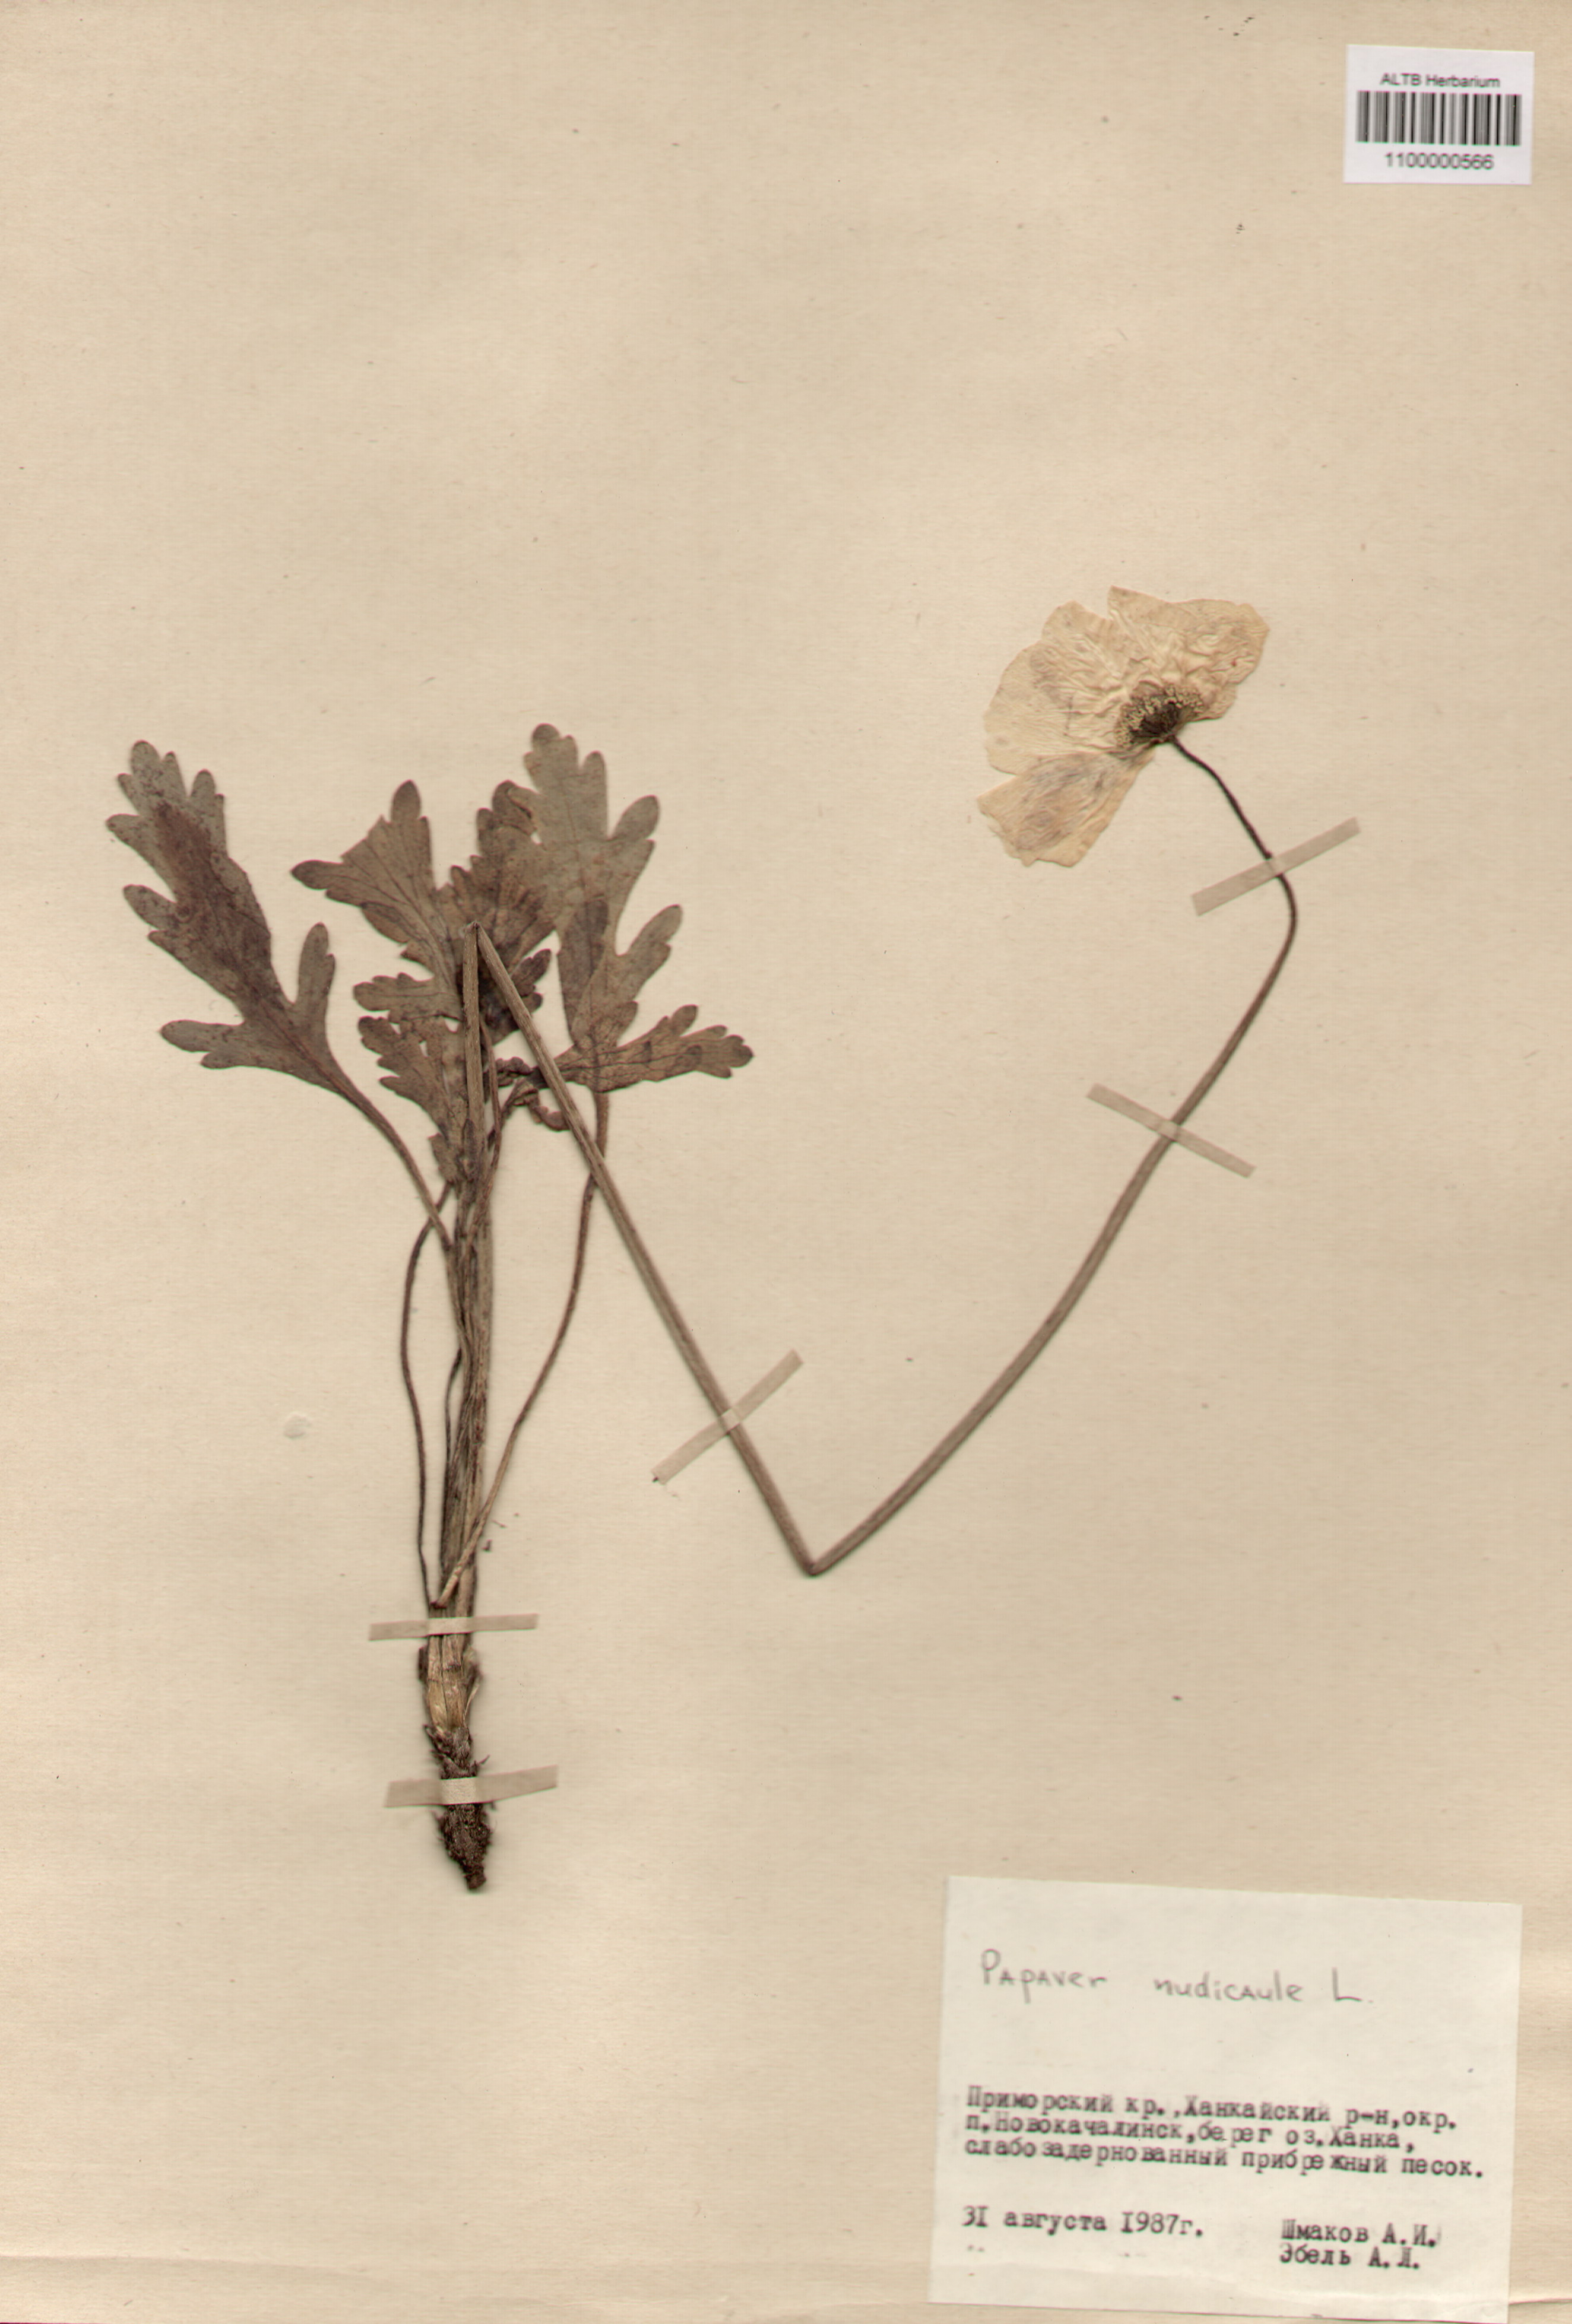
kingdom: Plantae
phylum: Tracheophyta
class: Magnoliopsida
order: Ranunculales
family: Papaveraceae
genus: Papaver
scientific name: Papaver nudicaule
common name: Arctic poppy
